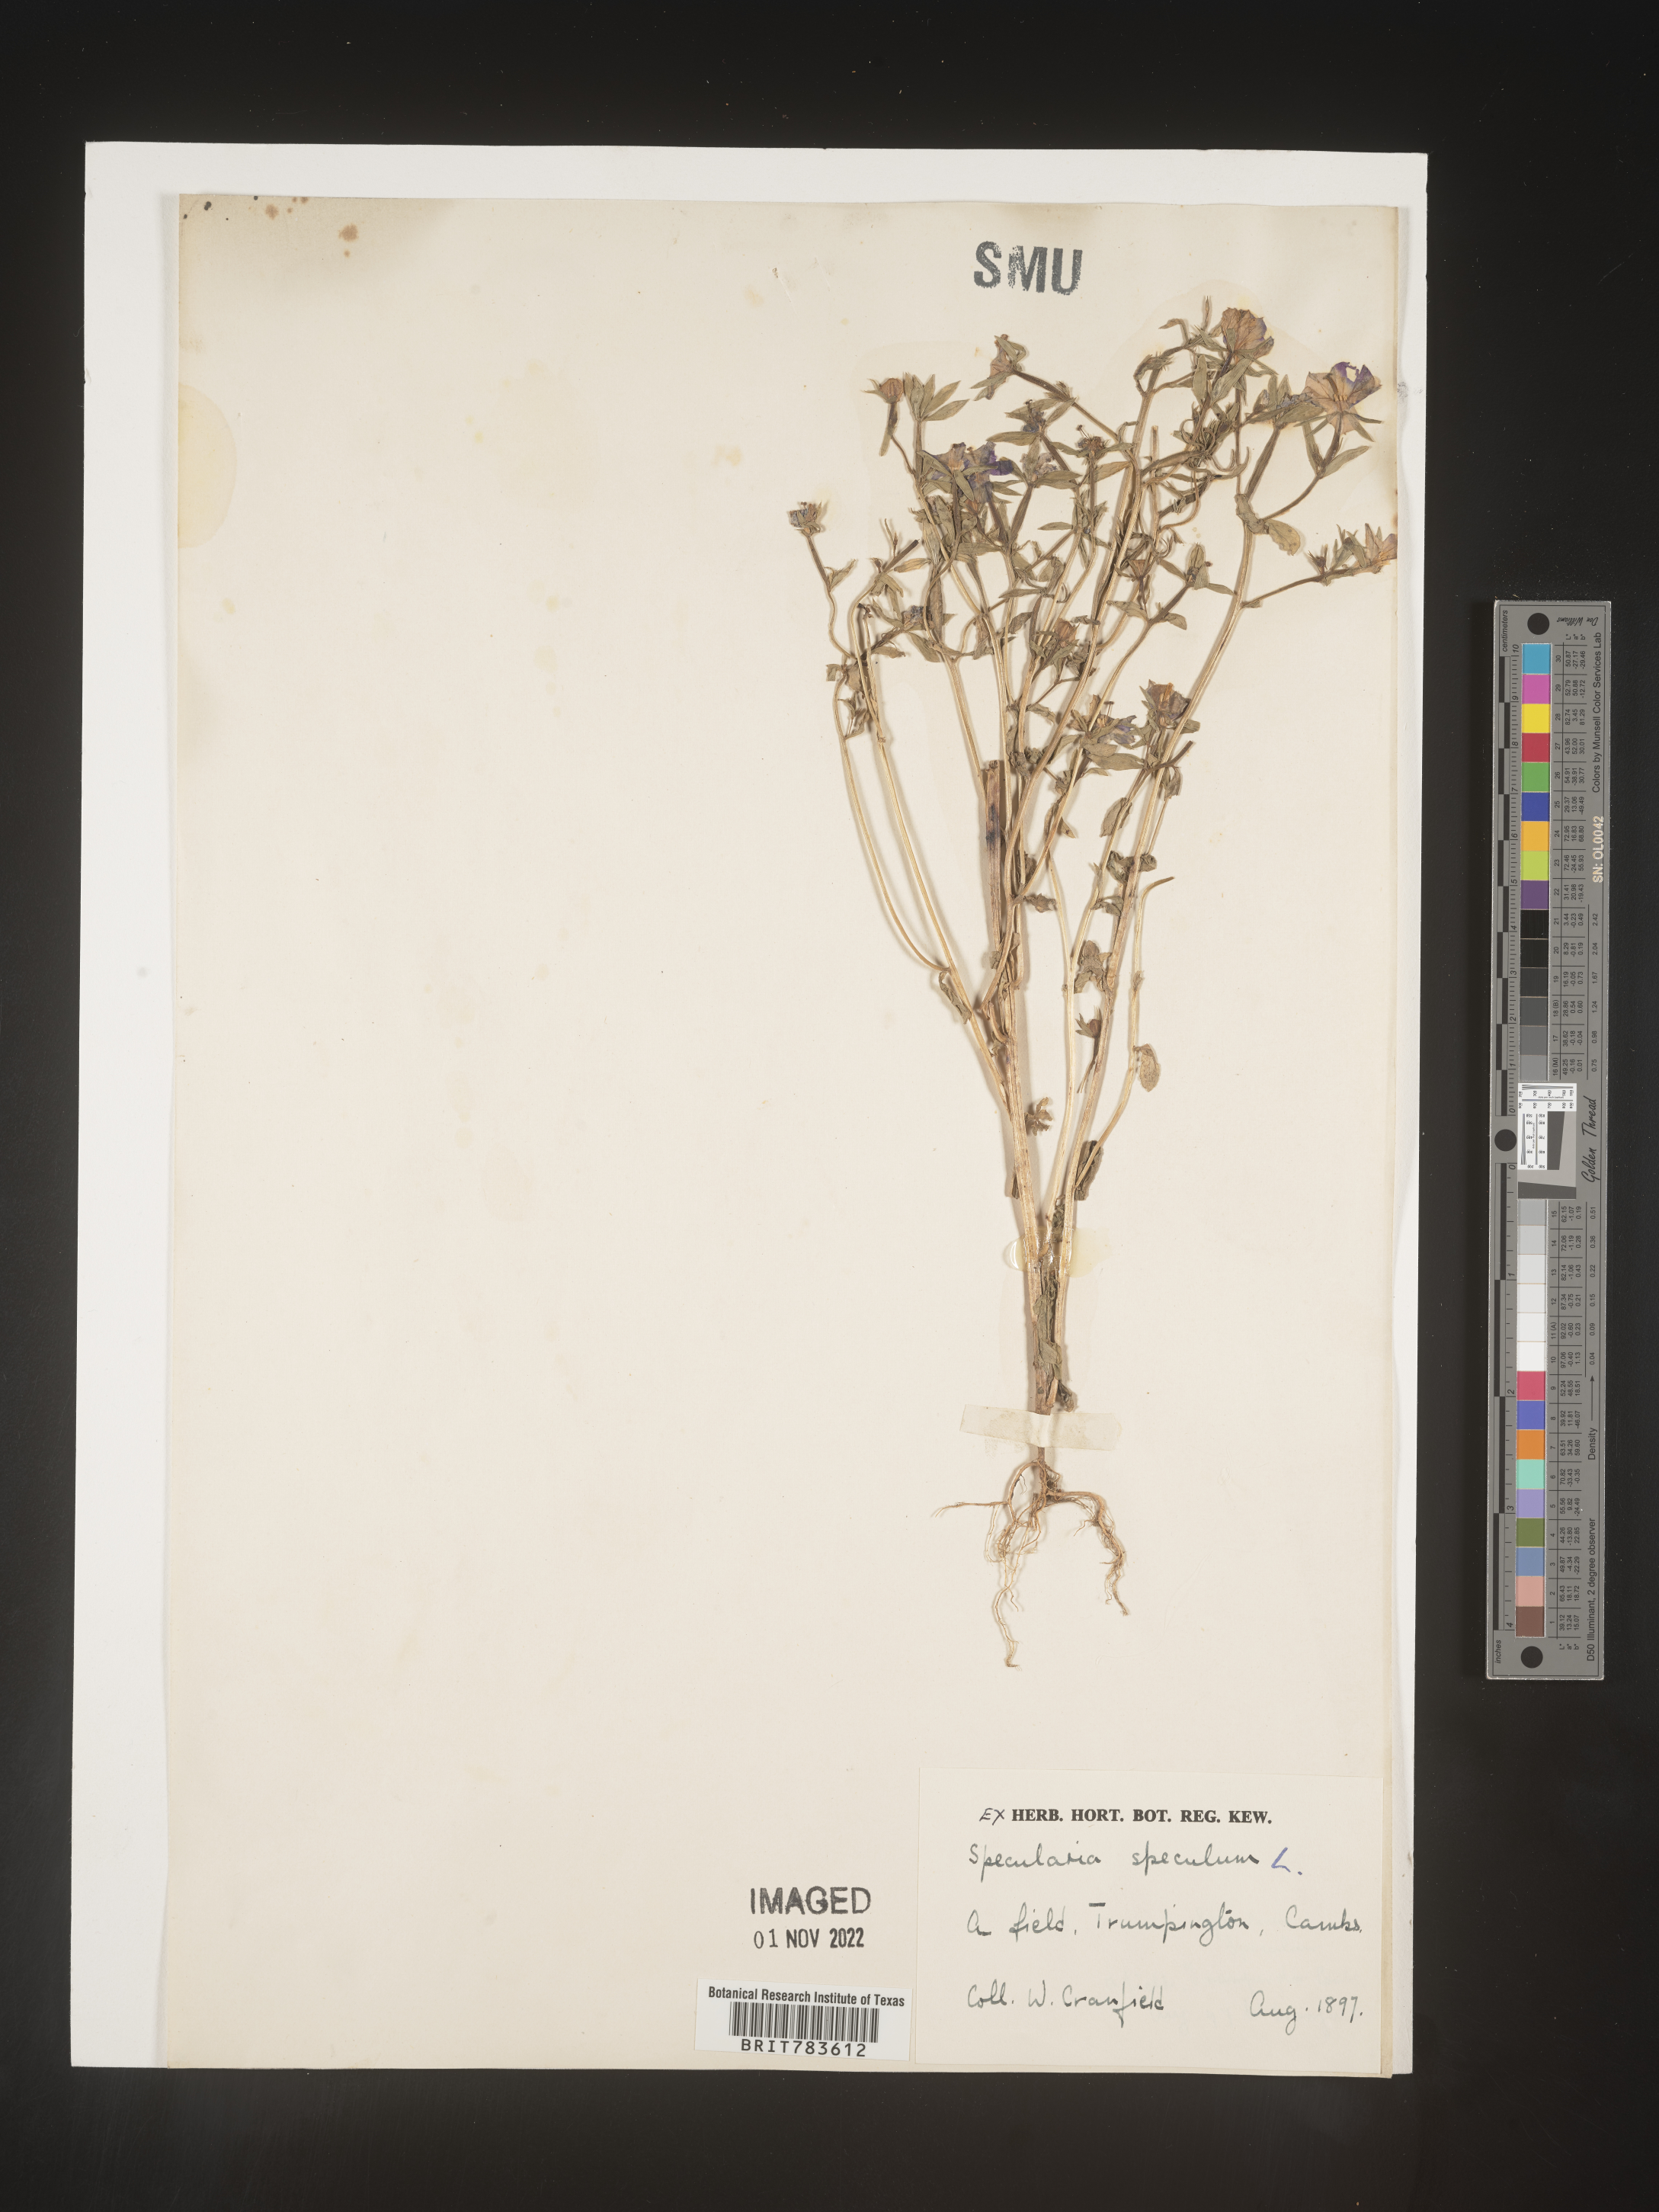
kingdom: Plantae
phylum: Tracheophyta
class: Magnoliopsida
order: Asterales
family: Campanulaceae
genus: Specularia
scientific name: Specularia
